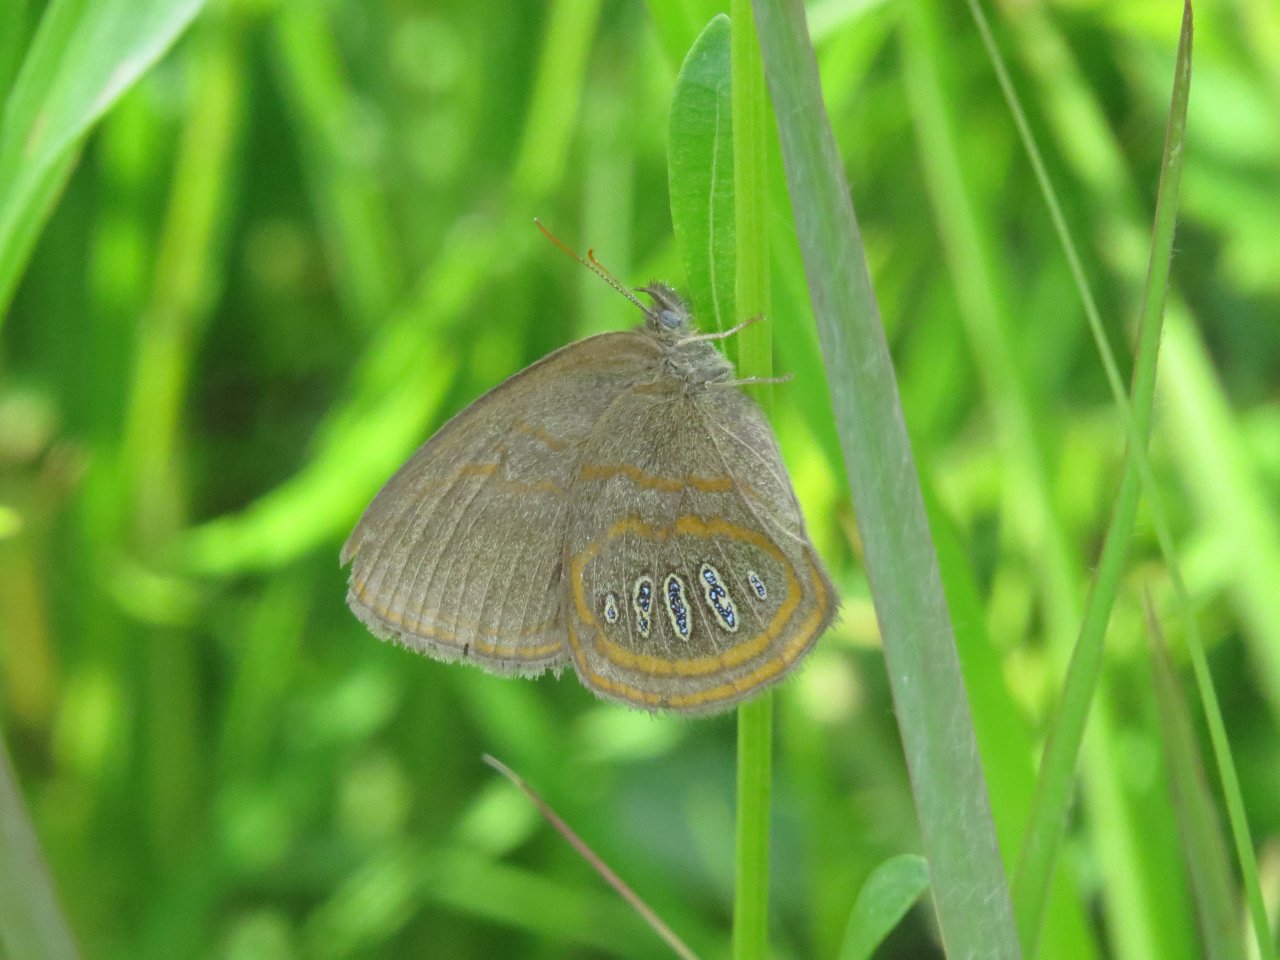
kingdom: Animalia
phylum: Arthropoda
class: Insecta
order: Lepidoptera
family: Nymphalidae
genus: Euptychia
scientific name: Euptychia phocion
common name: Georgia Satyr
